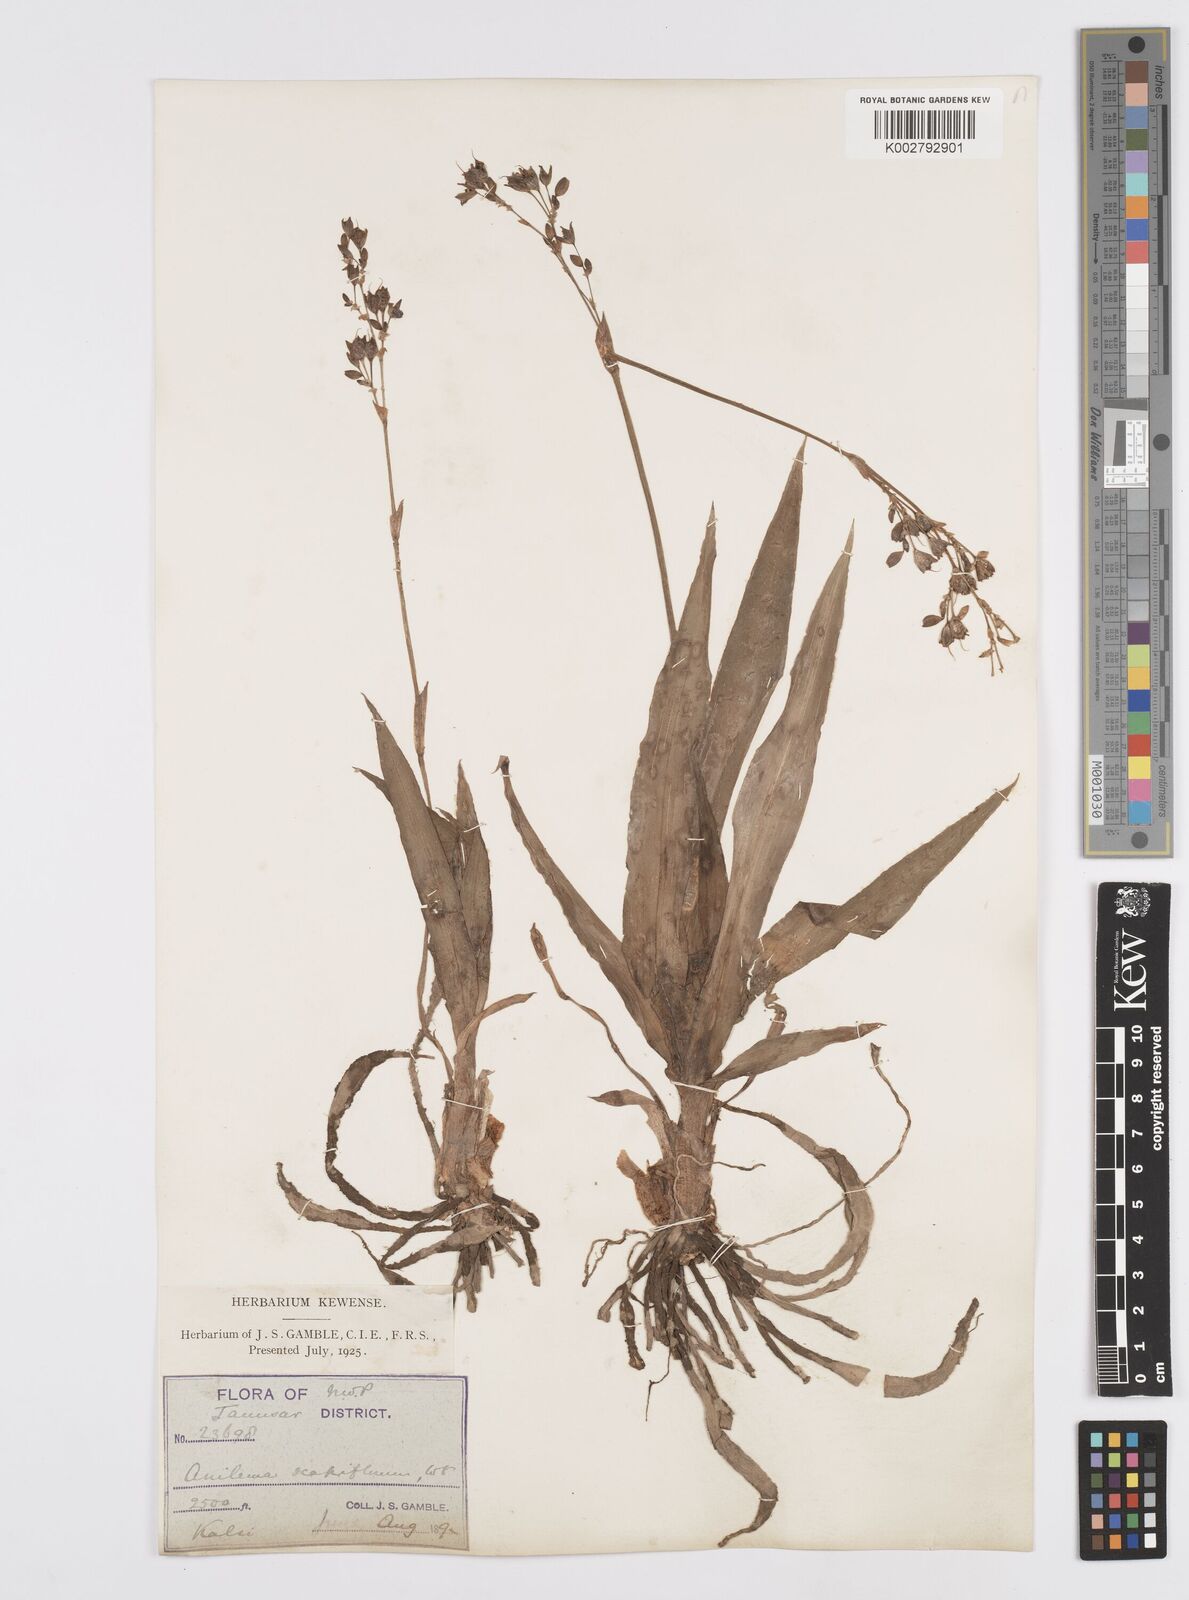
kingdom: Plantae
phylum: Tracheophyta
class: Liliopsida
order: Commelinales
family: Commelinaceae
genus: Murdannia
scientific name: Murdannia edulis
